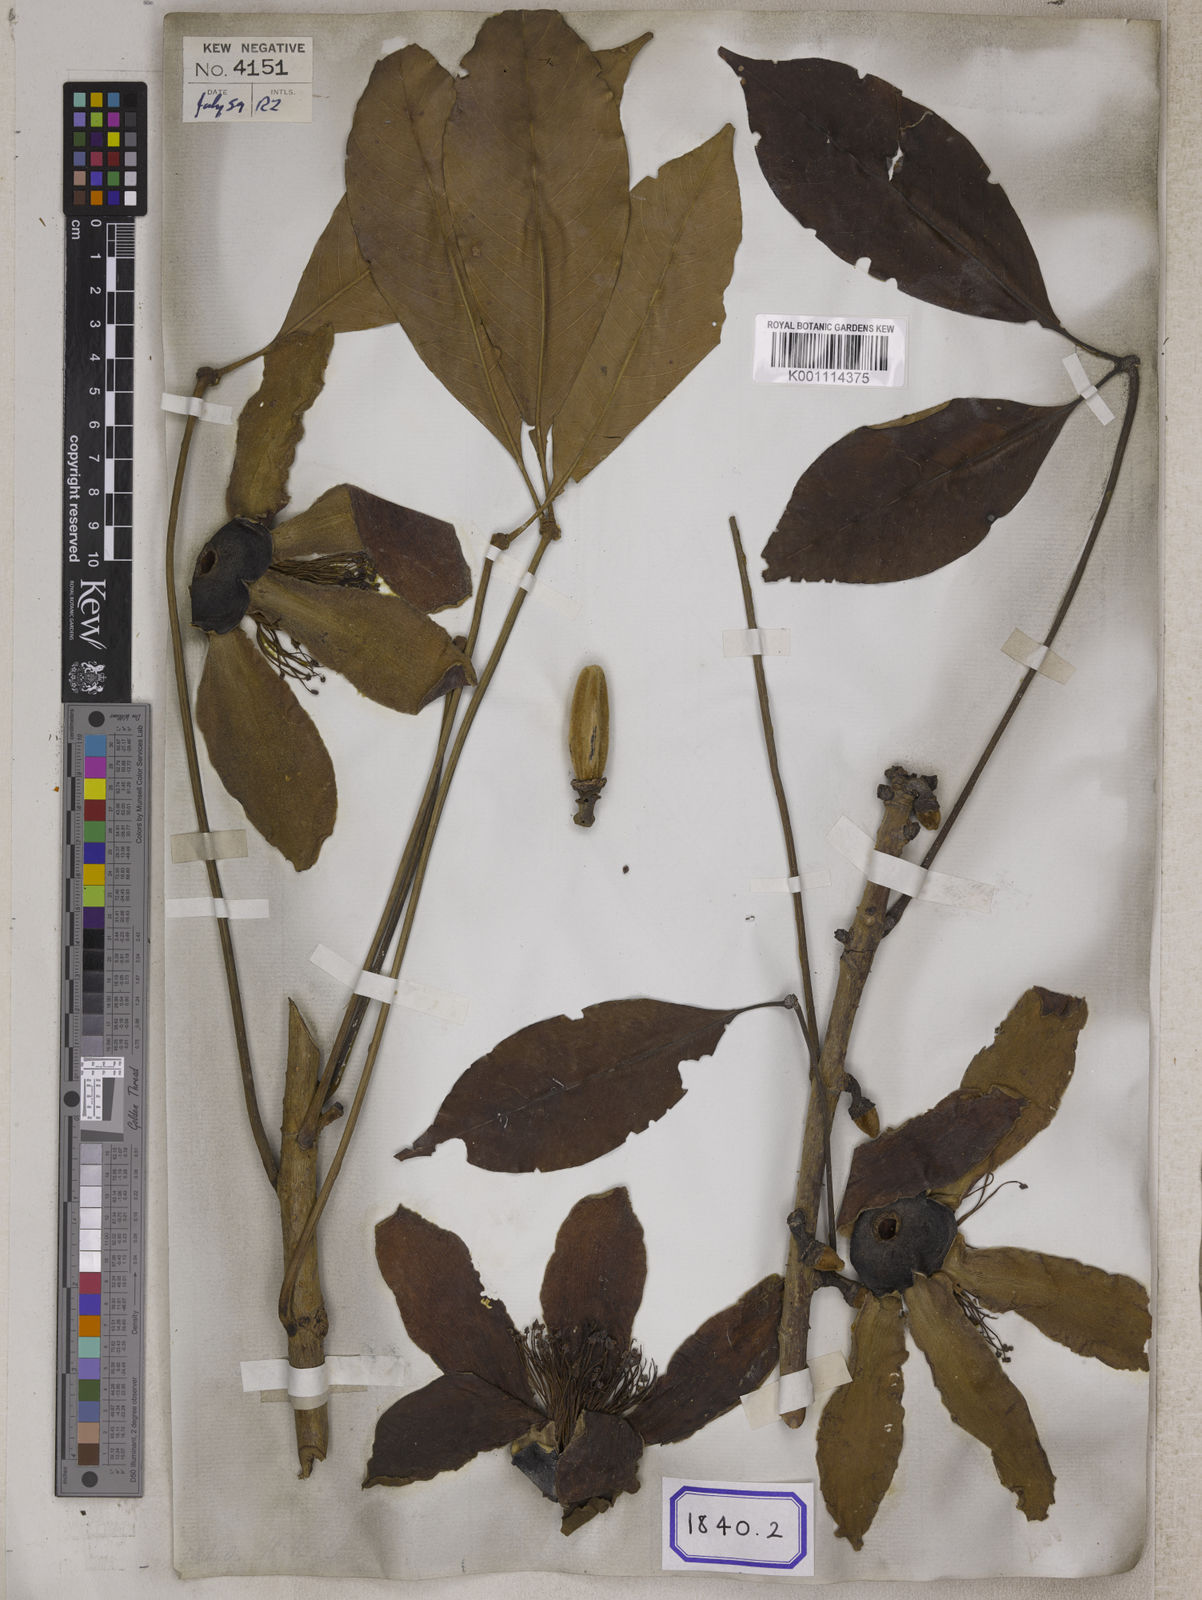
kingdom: Plantae
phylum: Tracheophyta
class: Magnoliopsida
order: Malvales
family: Malvaceae
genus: Bombax
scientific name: Bombax ceiba
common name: Northern-cottonwood
